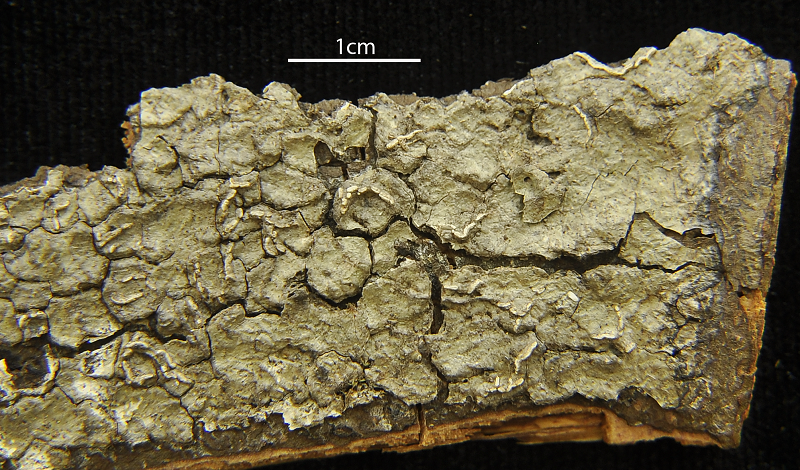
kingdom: Fungi
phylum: Ascomycota
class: Lecanoromycetes
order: Ostropales
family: Graphidaceae
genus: Fissurina
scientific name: Fissurina rufula
